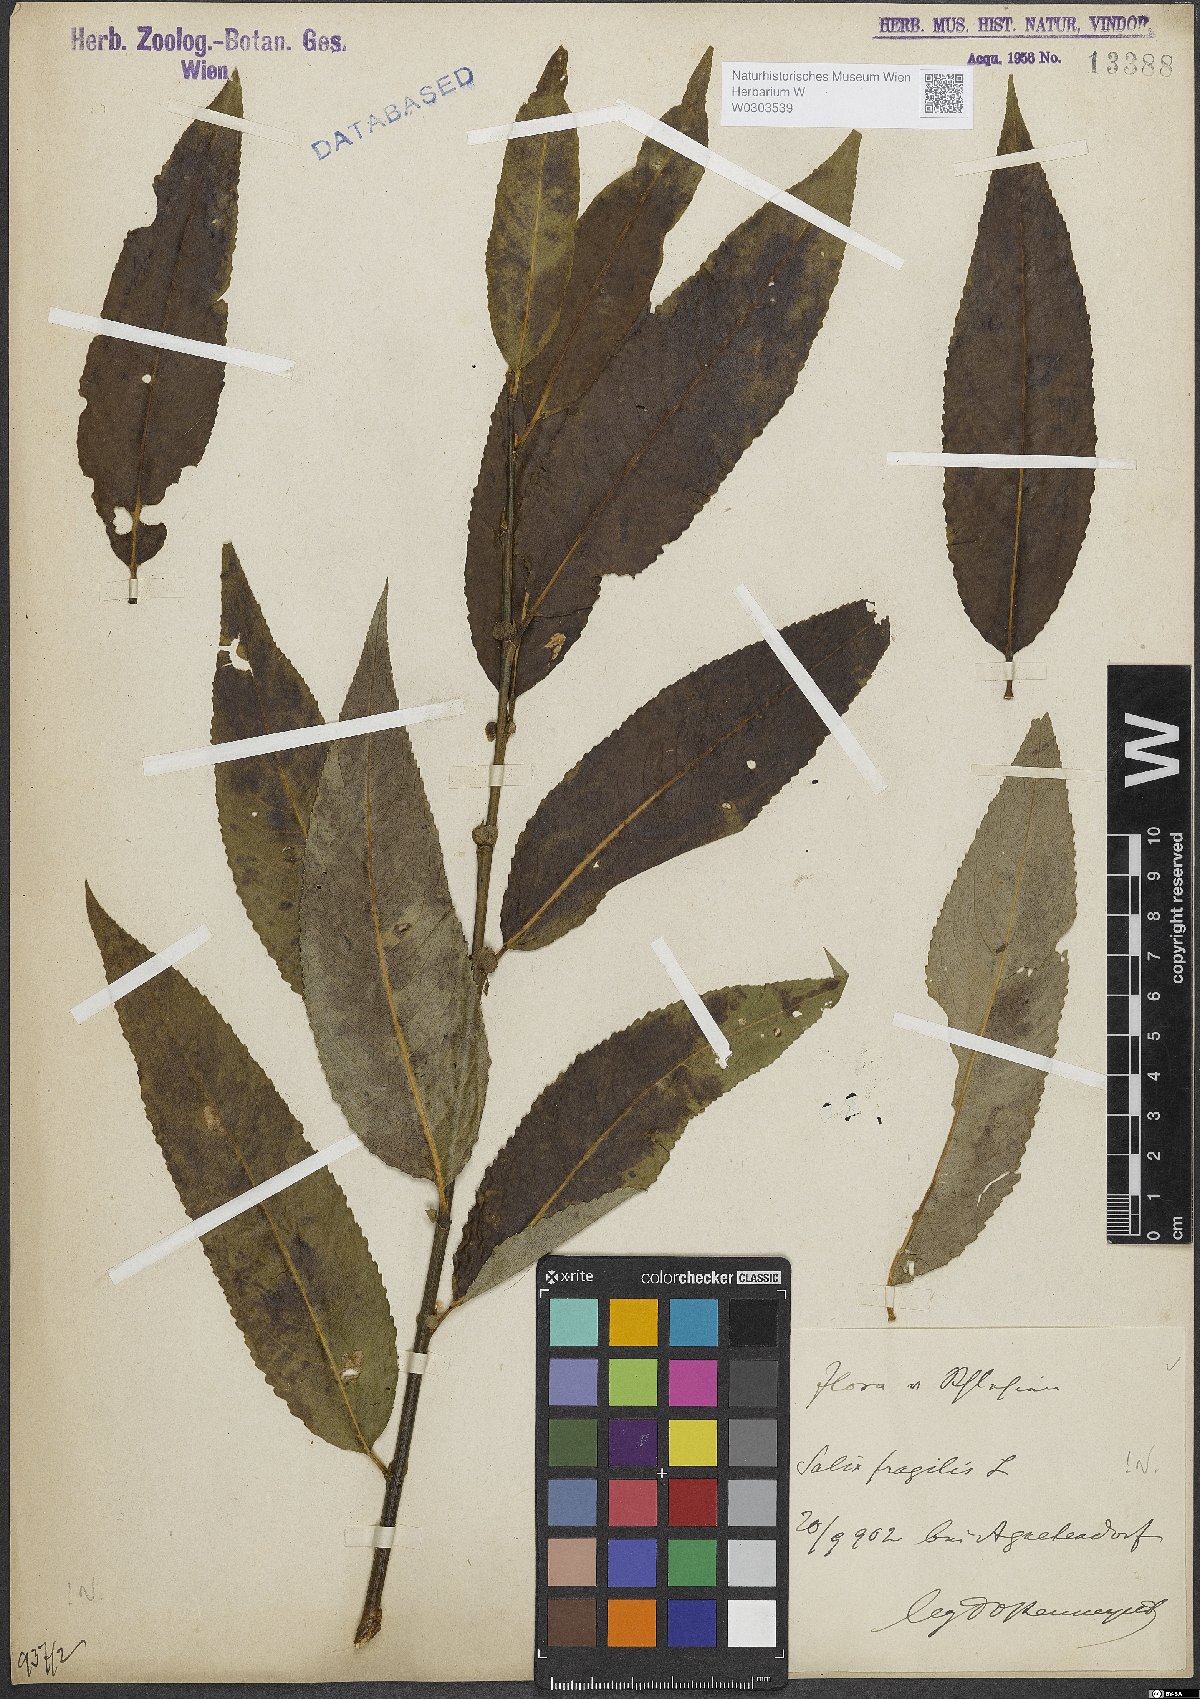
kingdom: Plantae
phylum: Tracheophyta
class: Magnoliopsida
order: Malpighiales
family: Salicaceae
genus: Salix
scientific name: Salix fragilis
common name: Crack willow
